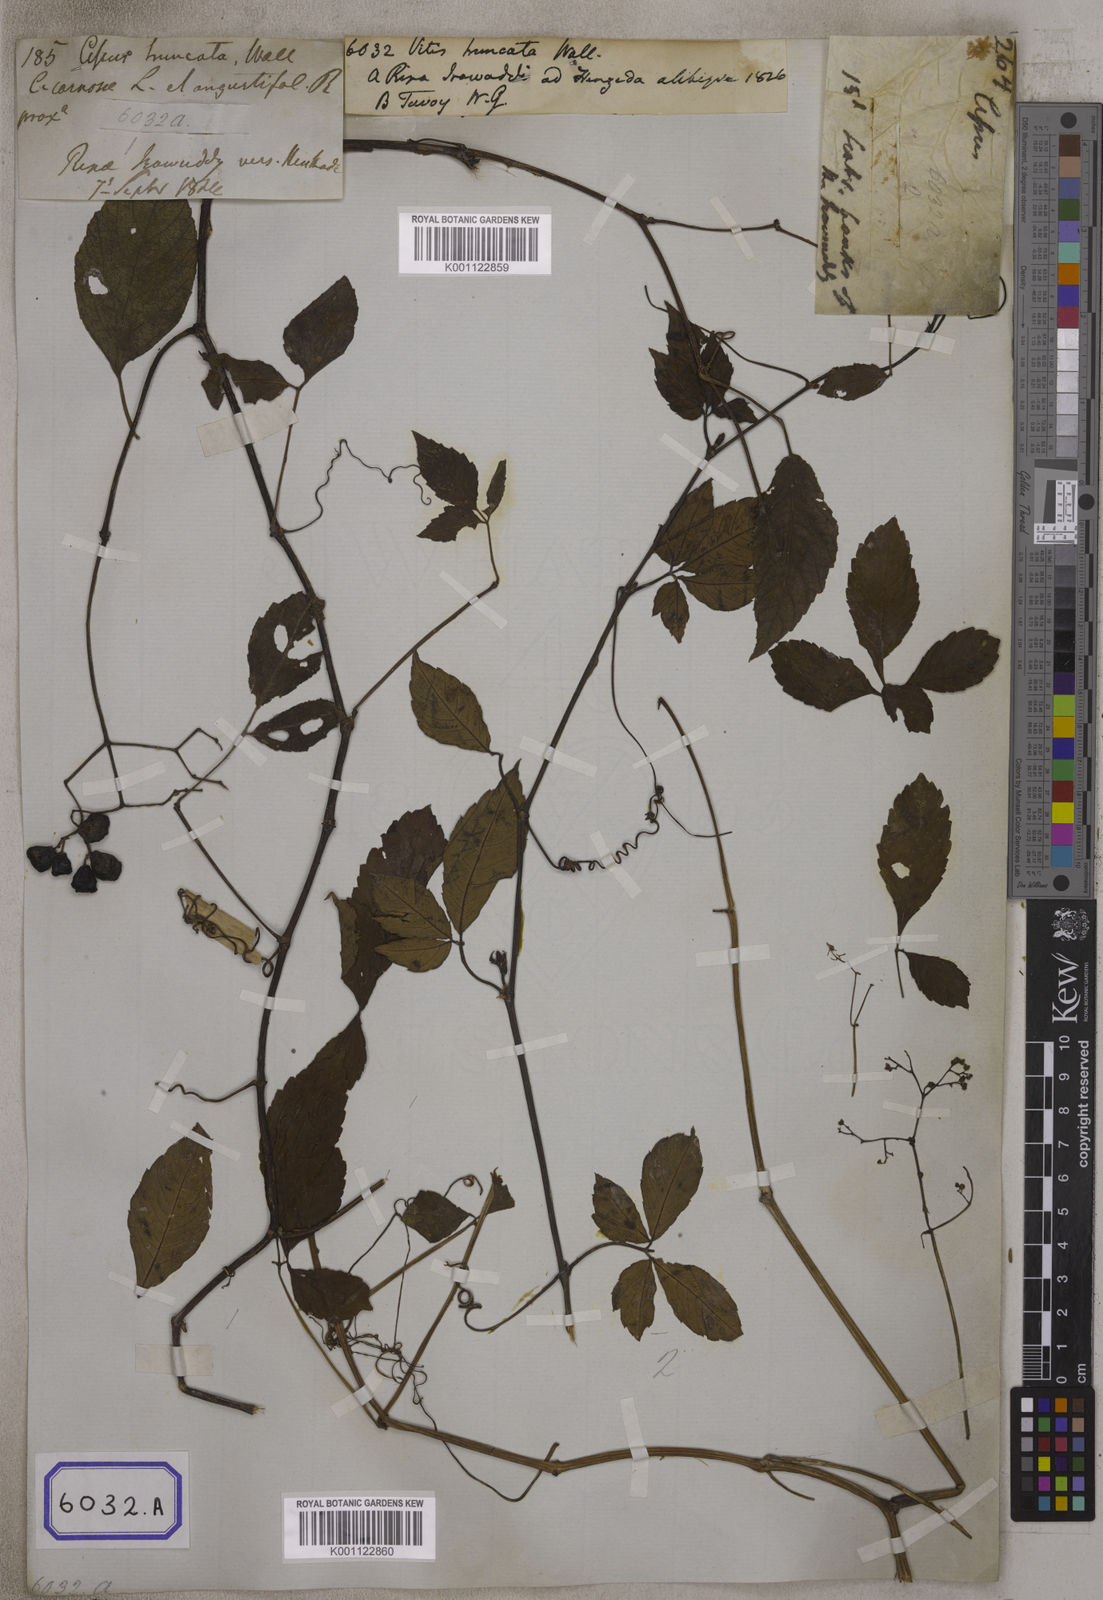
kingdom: Plantae
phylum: Tracheophyta
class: Magnoliopsida
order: Vitales
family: Vitaceae
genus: Causonis
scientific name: Causonis japonica
